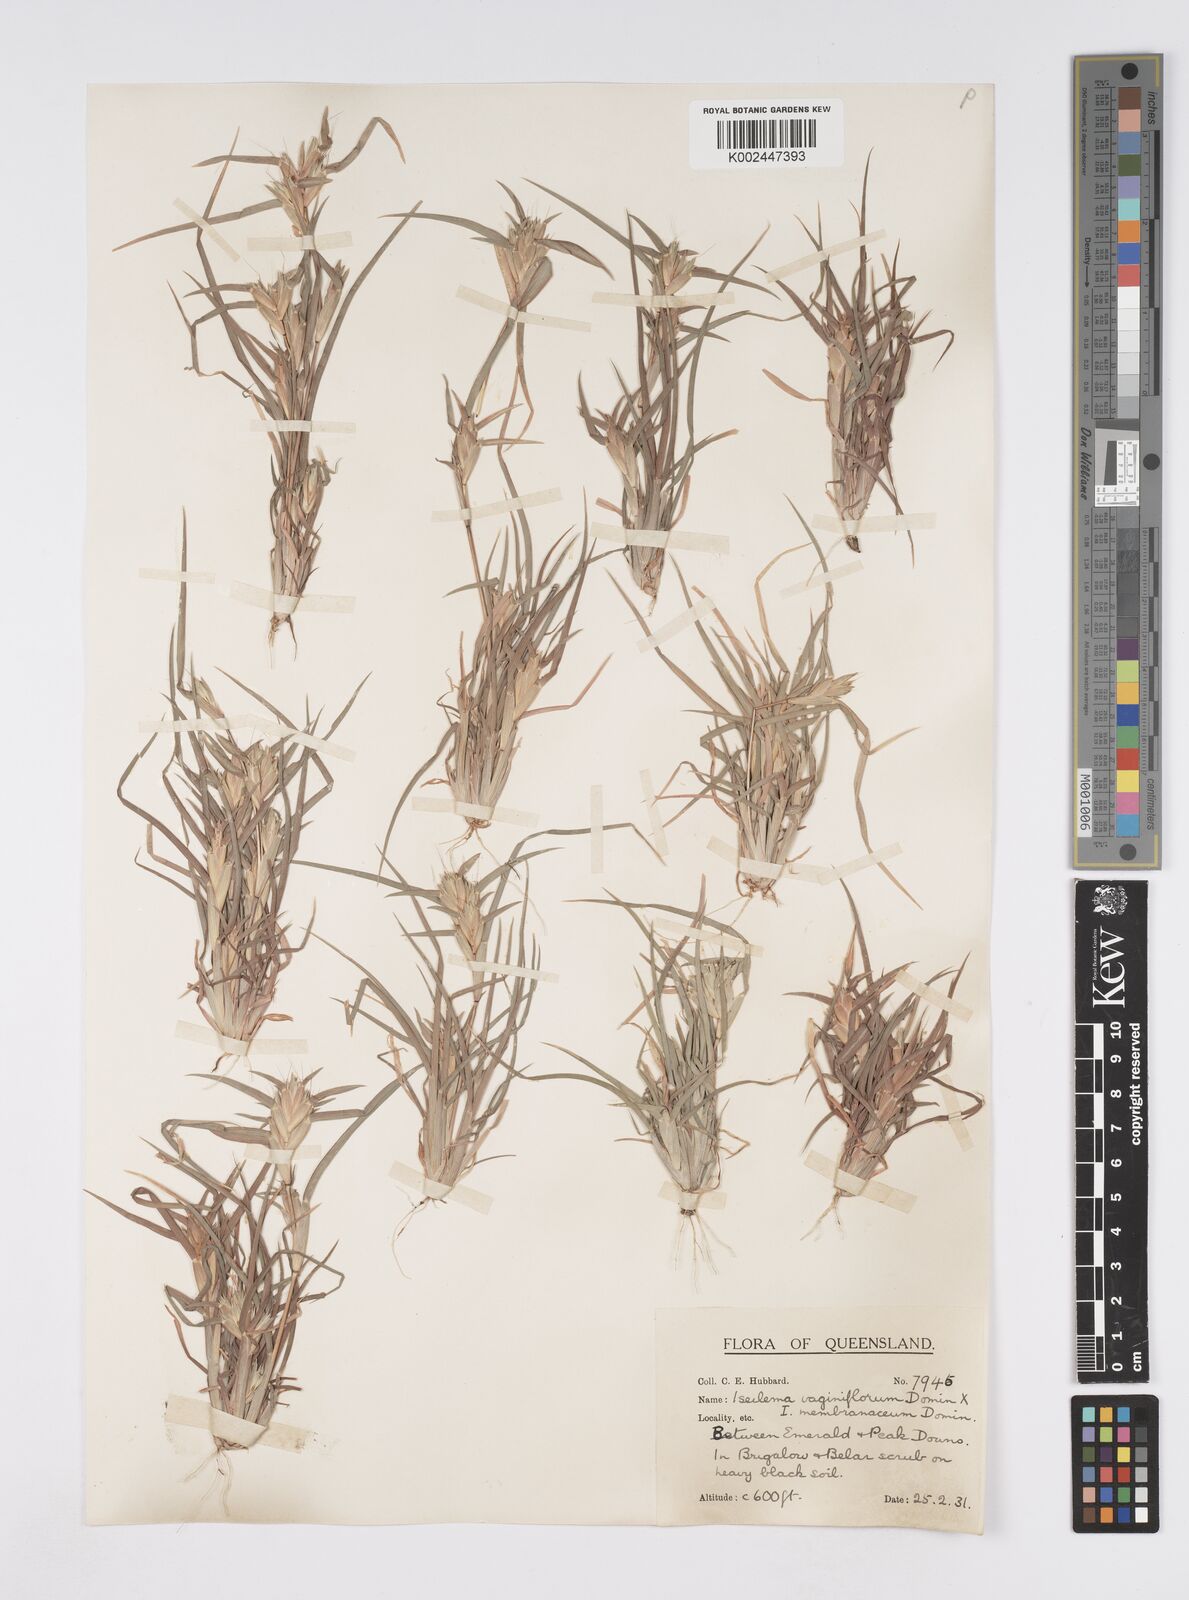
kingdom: Plantae
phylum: Tracheophyta
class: Liliopsida
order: Poales
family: Poaceae
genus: Iseilema
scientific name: Iseilema vaginiflorum
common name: Red flinders grass
